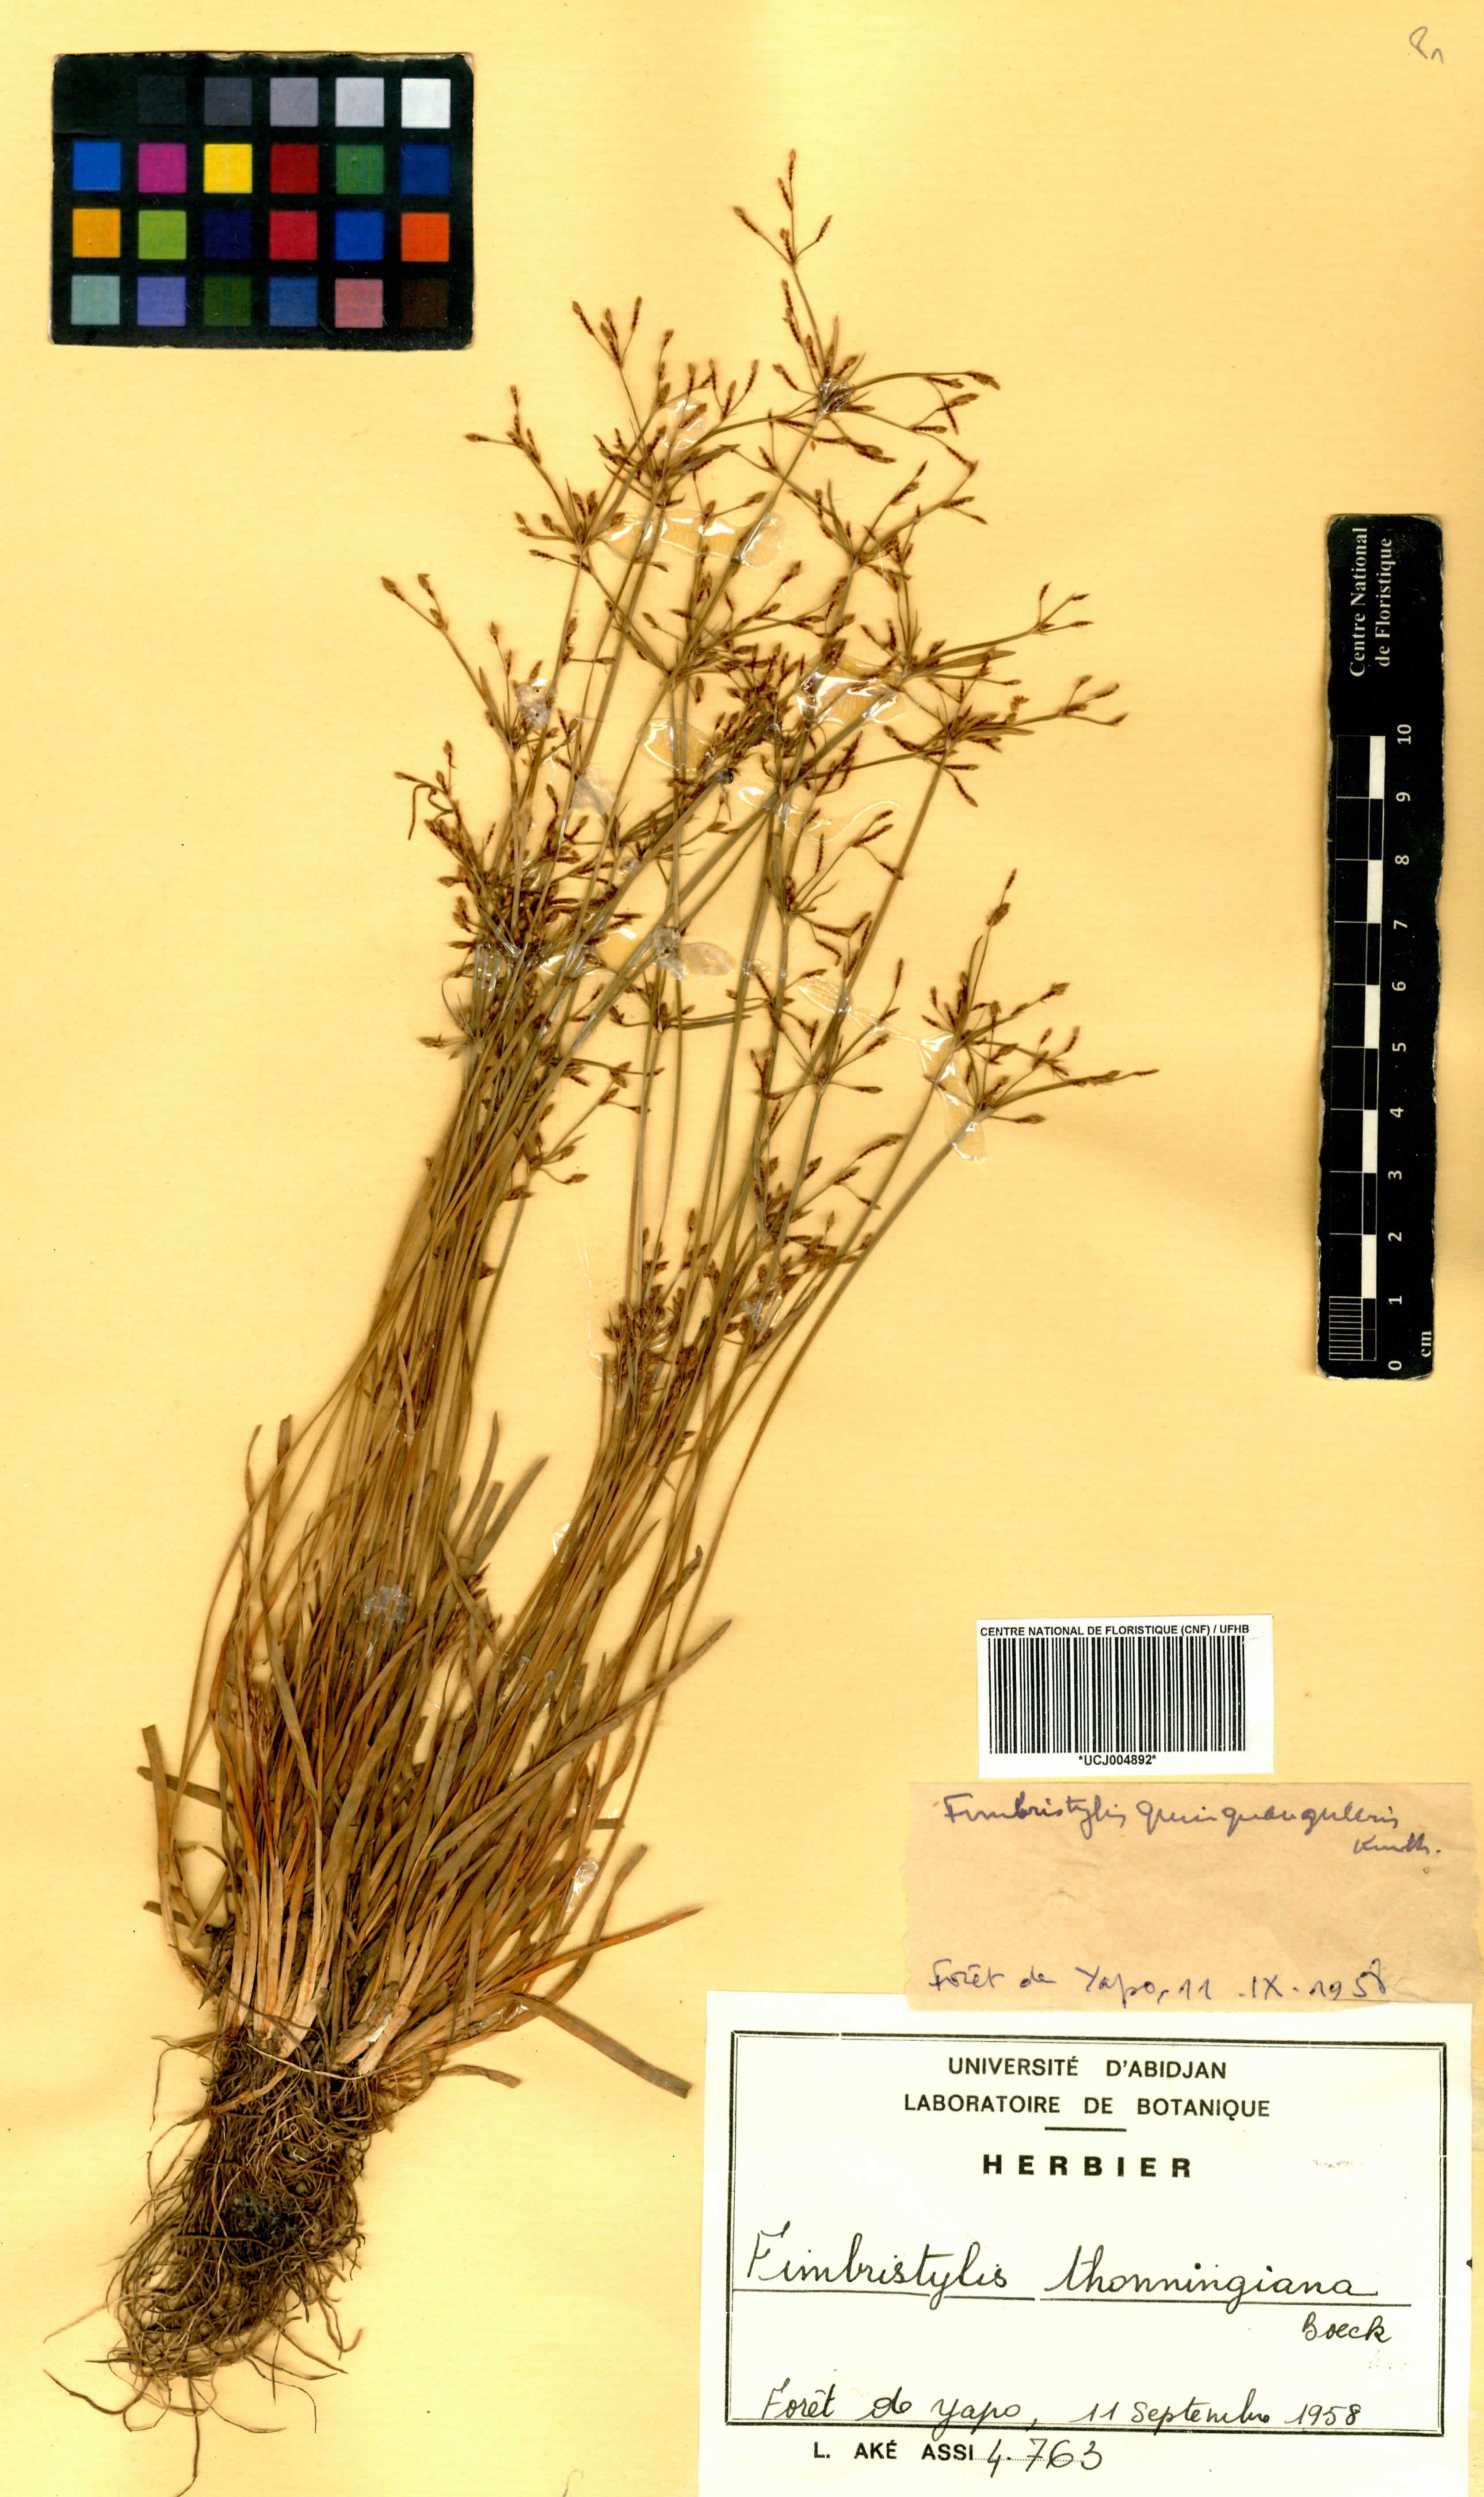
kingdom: Plantae
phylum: Tracheophyta
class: Liliopsida
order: Poales
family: Cyperaceae
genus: Fimbristylis
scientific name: Fimbristylis microcarya
